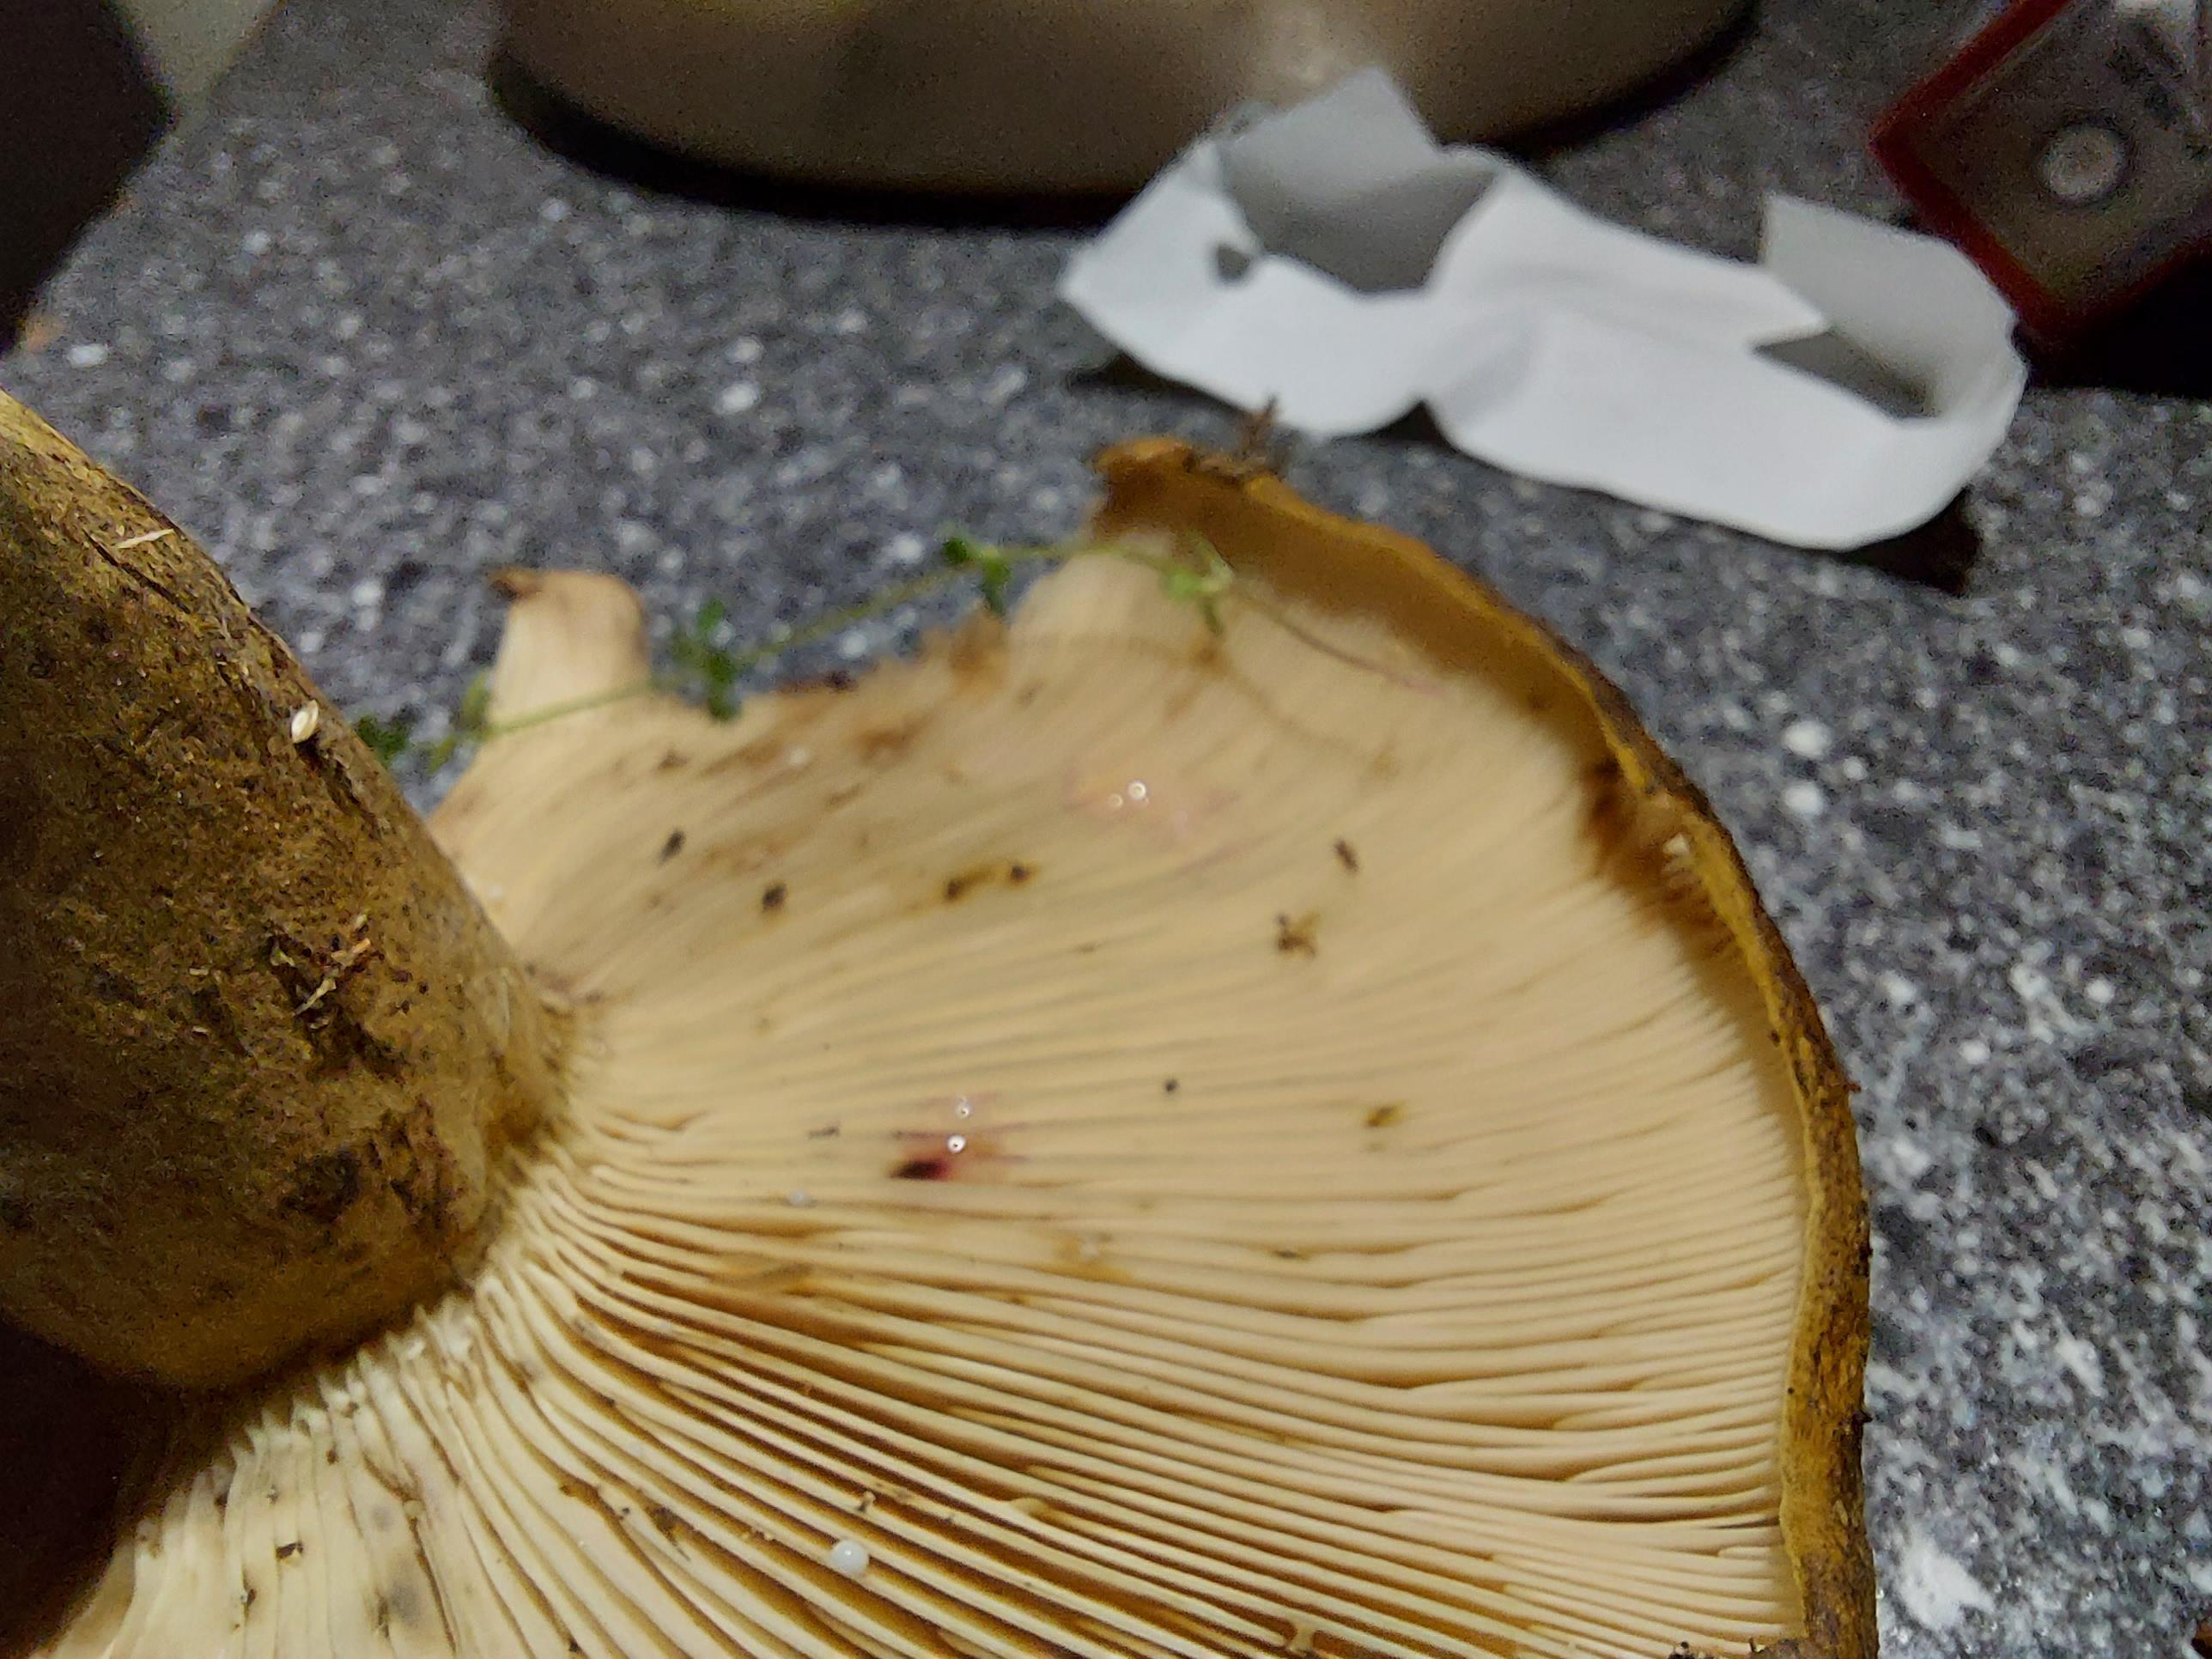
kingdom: Fungi
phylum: Basidiomycota
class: Agaricomycetes
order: Russulales
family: Russulaceae
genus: Lactarius
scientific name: Lactarius necator
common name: manddraber-mælkehat
